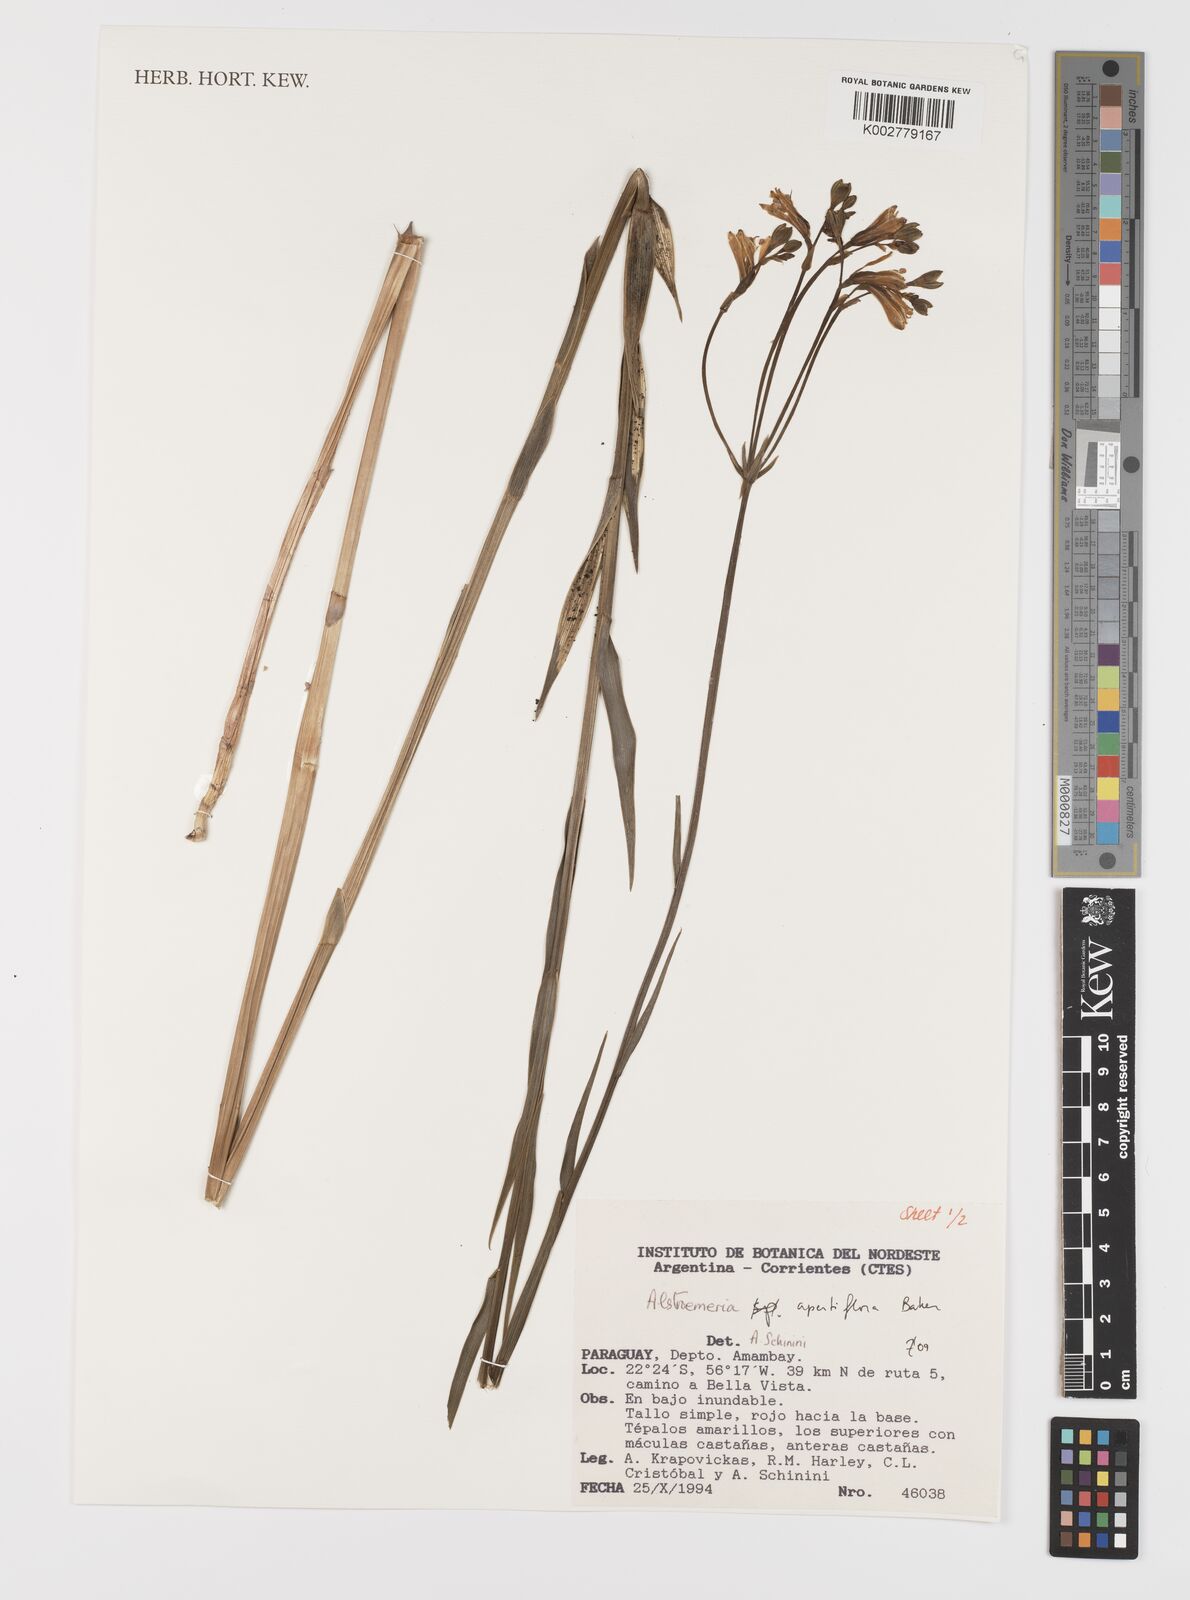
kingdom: Plantae
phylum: Tracheophyta
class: Liliopsida
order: Liliales
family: Alstroemeriaceae
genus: Alstroemeria
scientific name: Alstroemeria apertiflora
